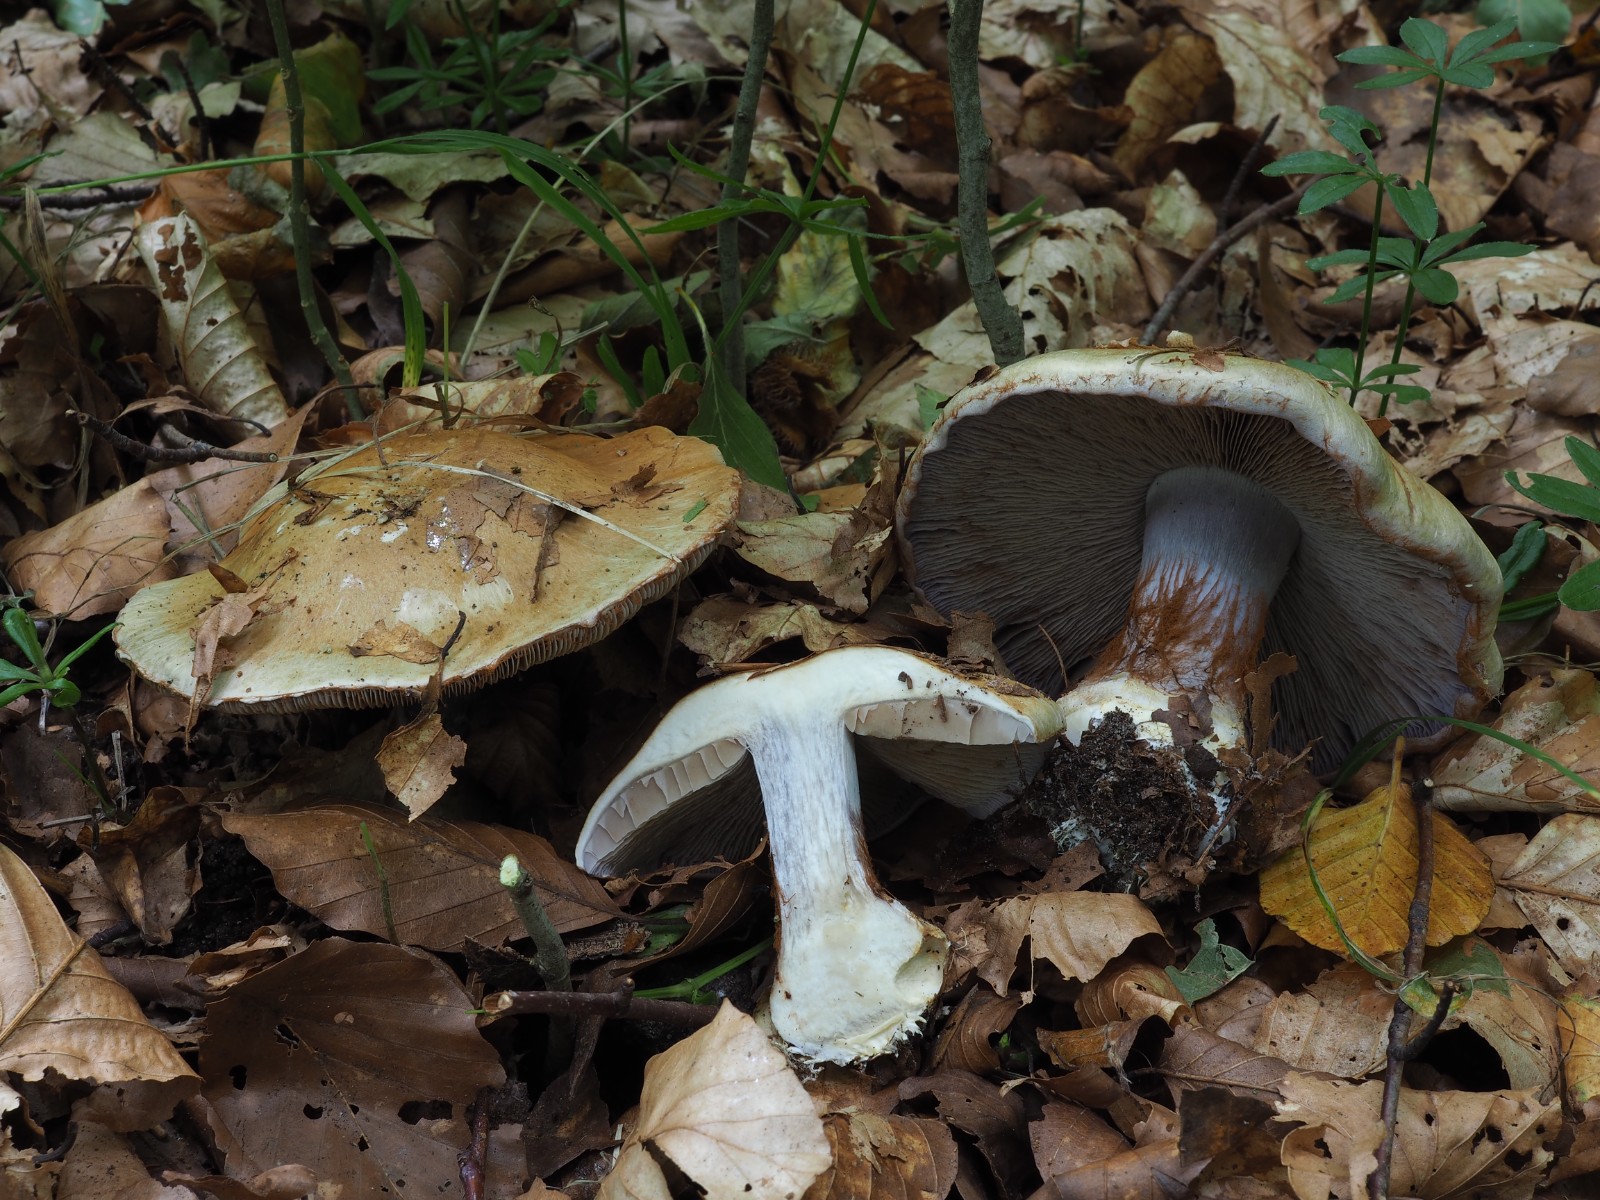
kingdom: Fungi
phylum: Basidiomycota
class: Agaricomycetes
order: Agaricales
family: Cortinariaceae
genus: Cortinarius
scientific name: Cortinarius anserinus
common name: bøge-slørhat
